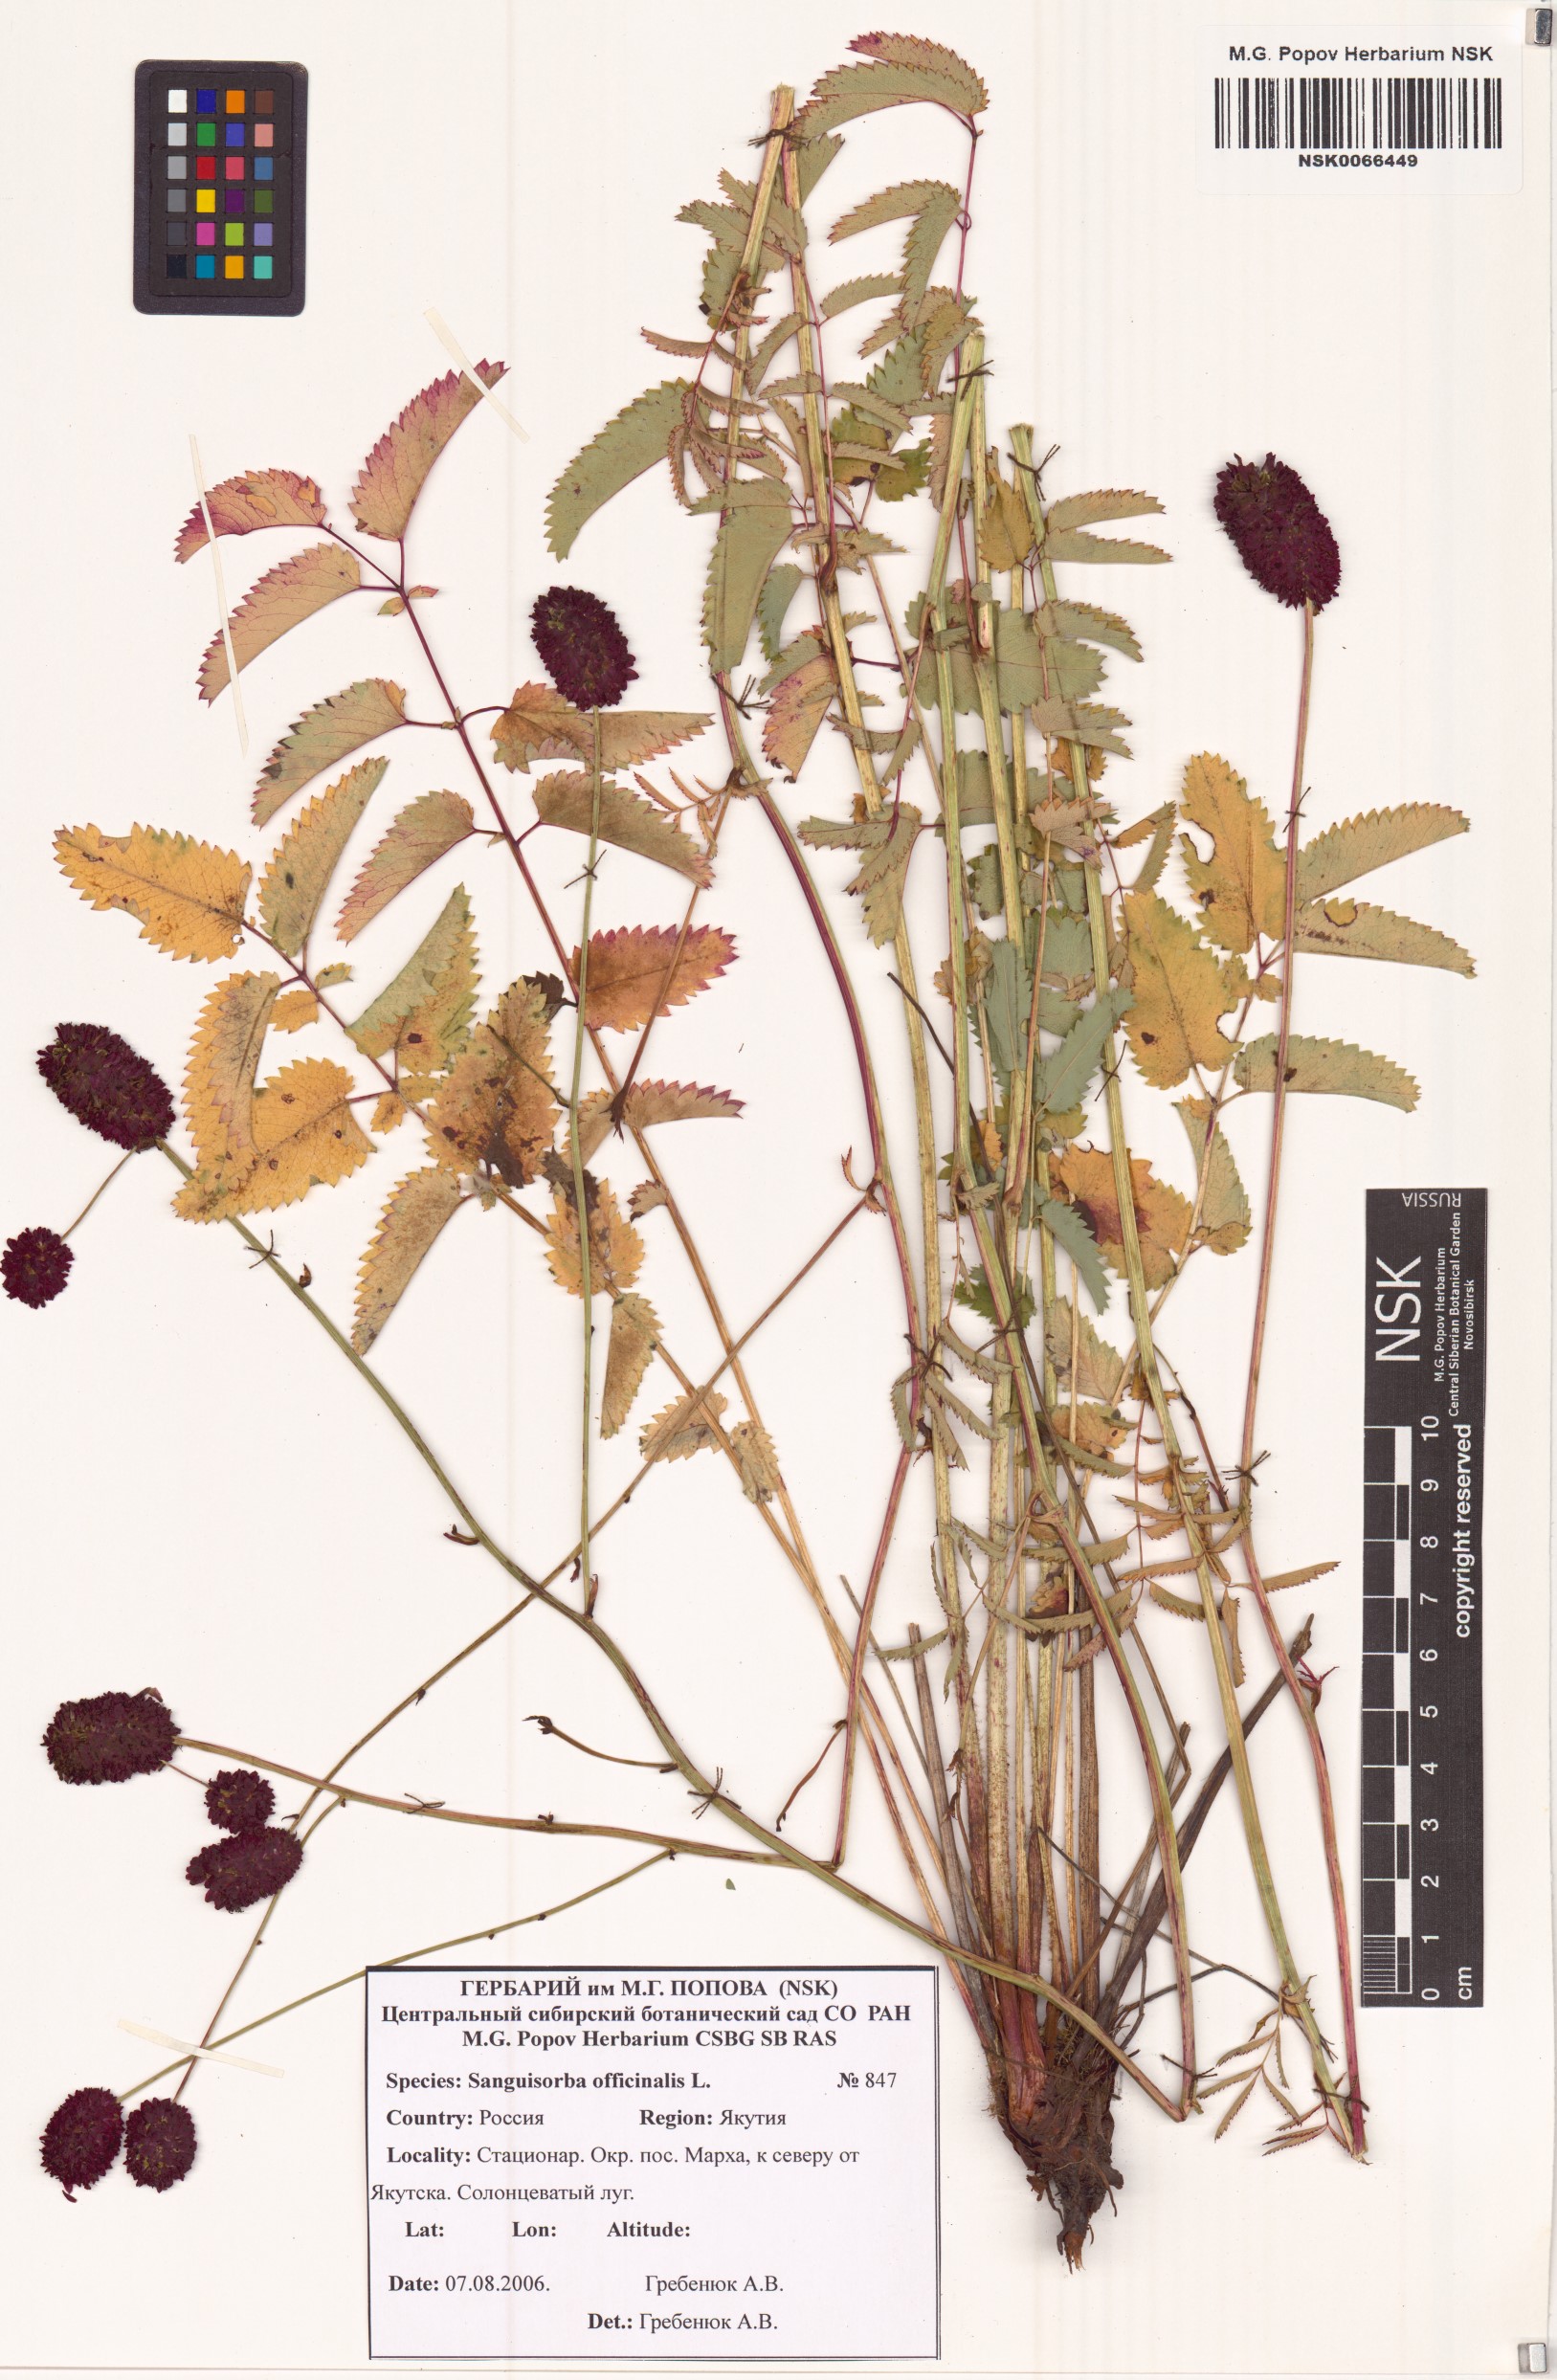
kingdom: Plantae
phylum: Tracheophyta
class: Magnoliopsida
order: Rosales
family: Rosaceae
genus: Sanguisorba
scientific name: Sanguisorba officinalis
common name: Great burnet
